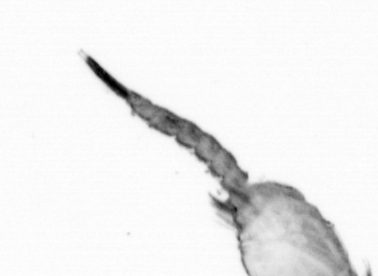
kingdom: Animalia
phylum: Annelida
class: Polychaeta
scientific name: Polychaeta
